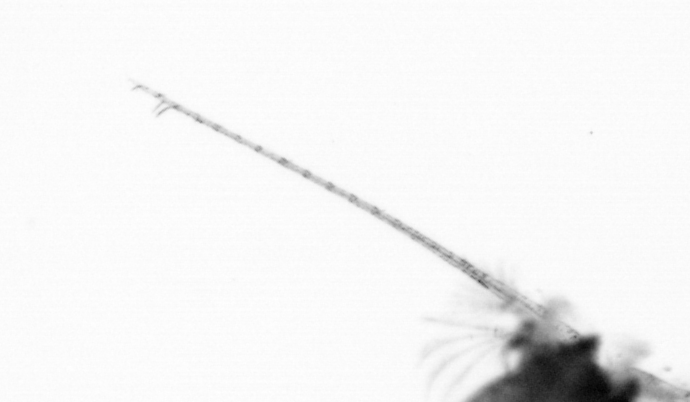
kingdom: Animalia
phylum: Arthropoda
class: Copepoda
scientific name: Copepoda
